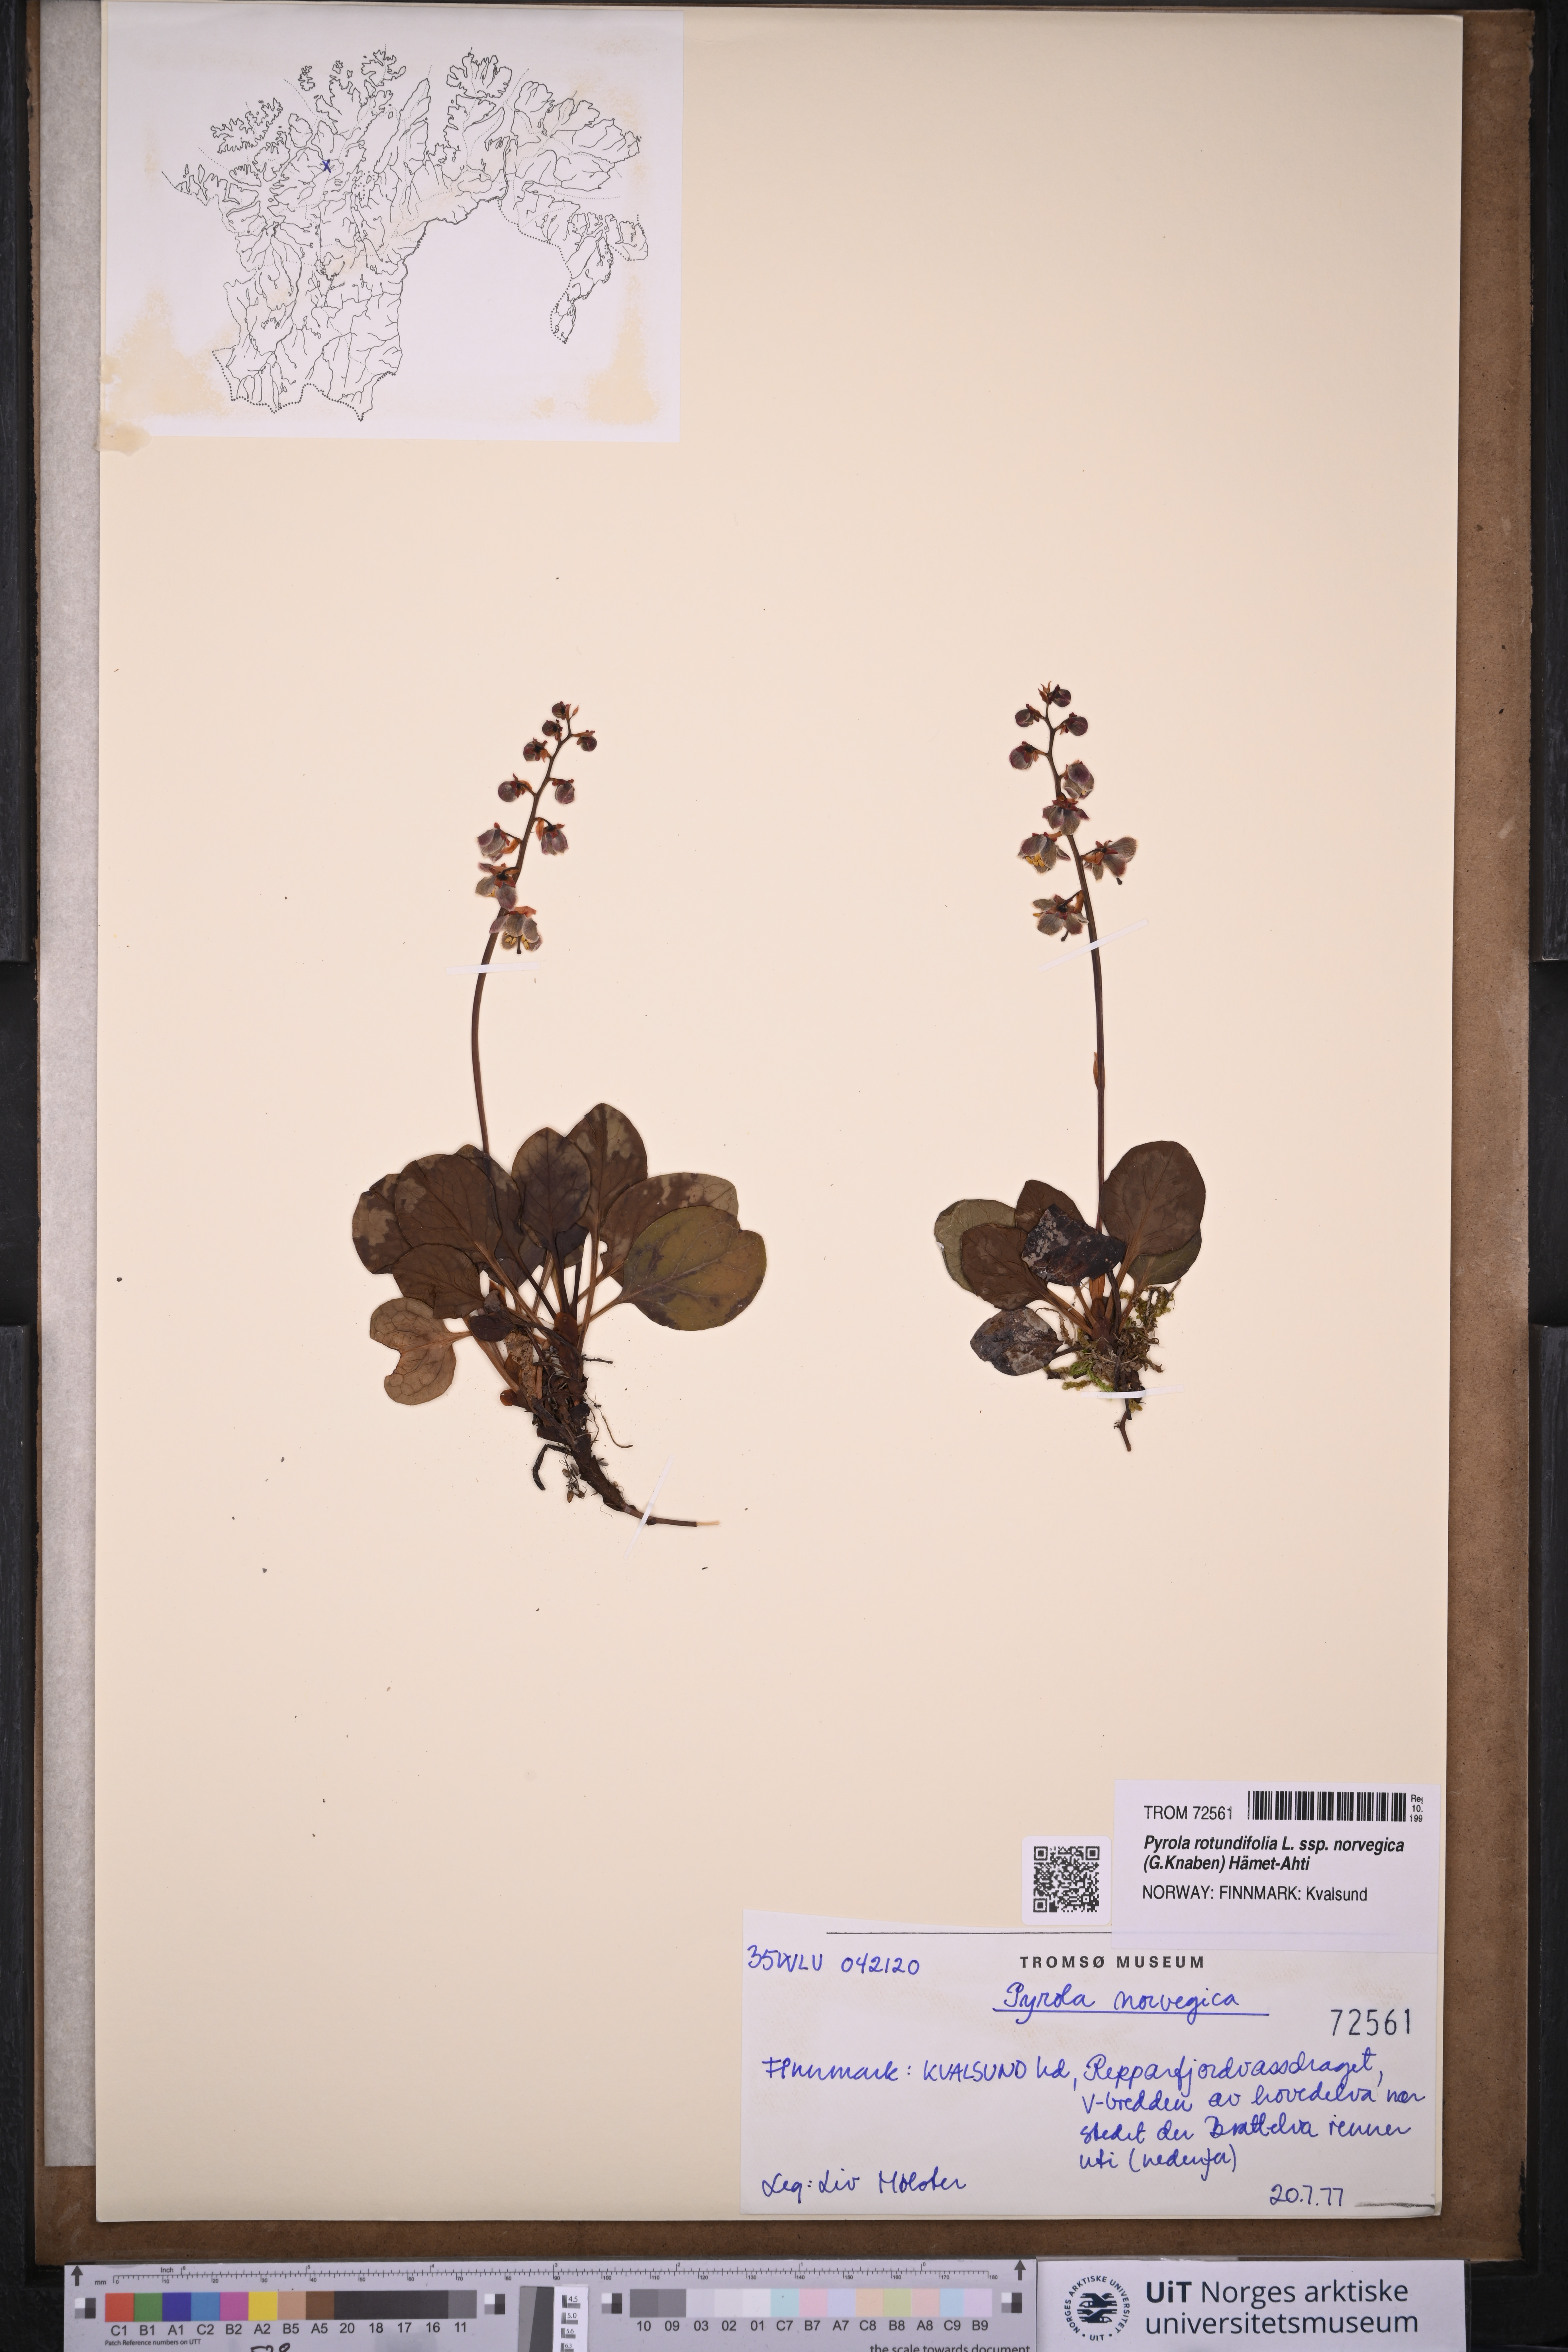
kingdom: Plantae
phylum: Tracheophyta
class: Magnoliopsida
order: Ericales
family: Ericaceae
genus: Pyrola
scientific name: Pyrola rotundifolia
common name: Round-leaved wintergreen
